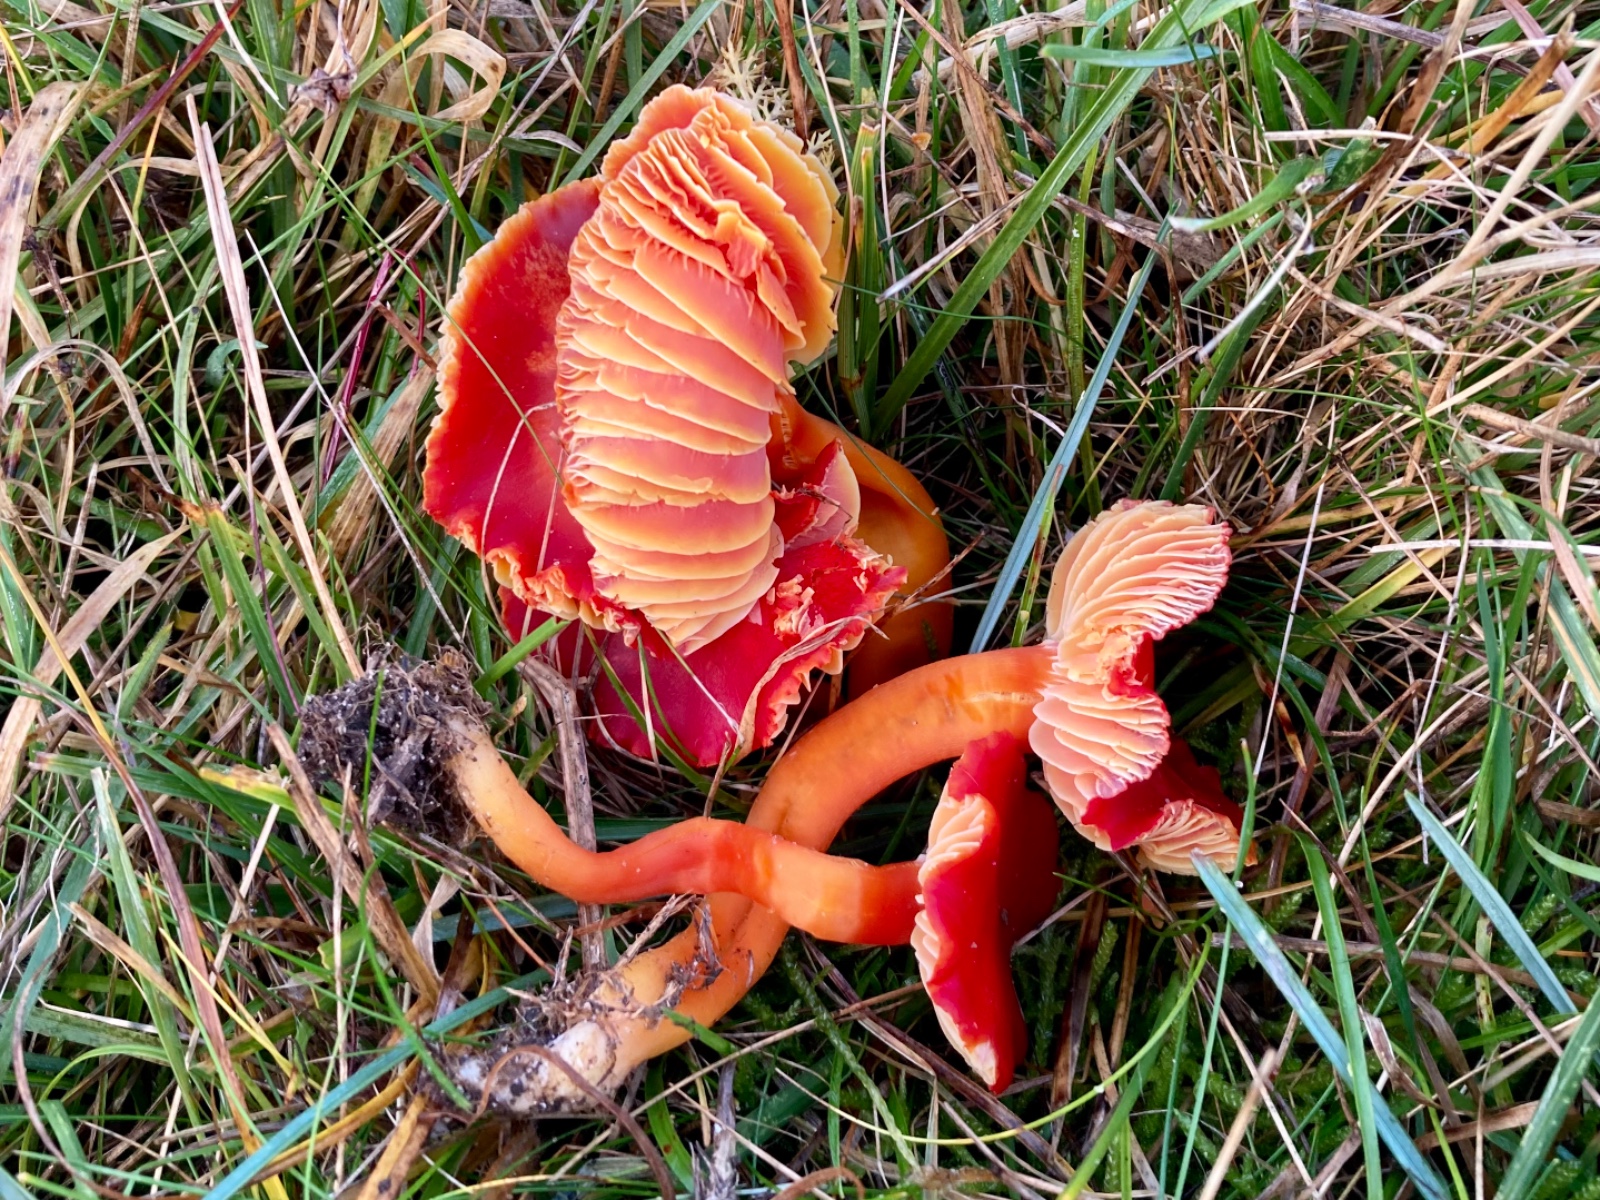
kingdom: Fungi
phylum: Basidiomycota
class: Agaricomycetes
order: Agaricales
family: Hygrophoraceae
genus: Hygrocybe
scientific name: Hygrocybe coccinea
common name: cinnober-vokshat
